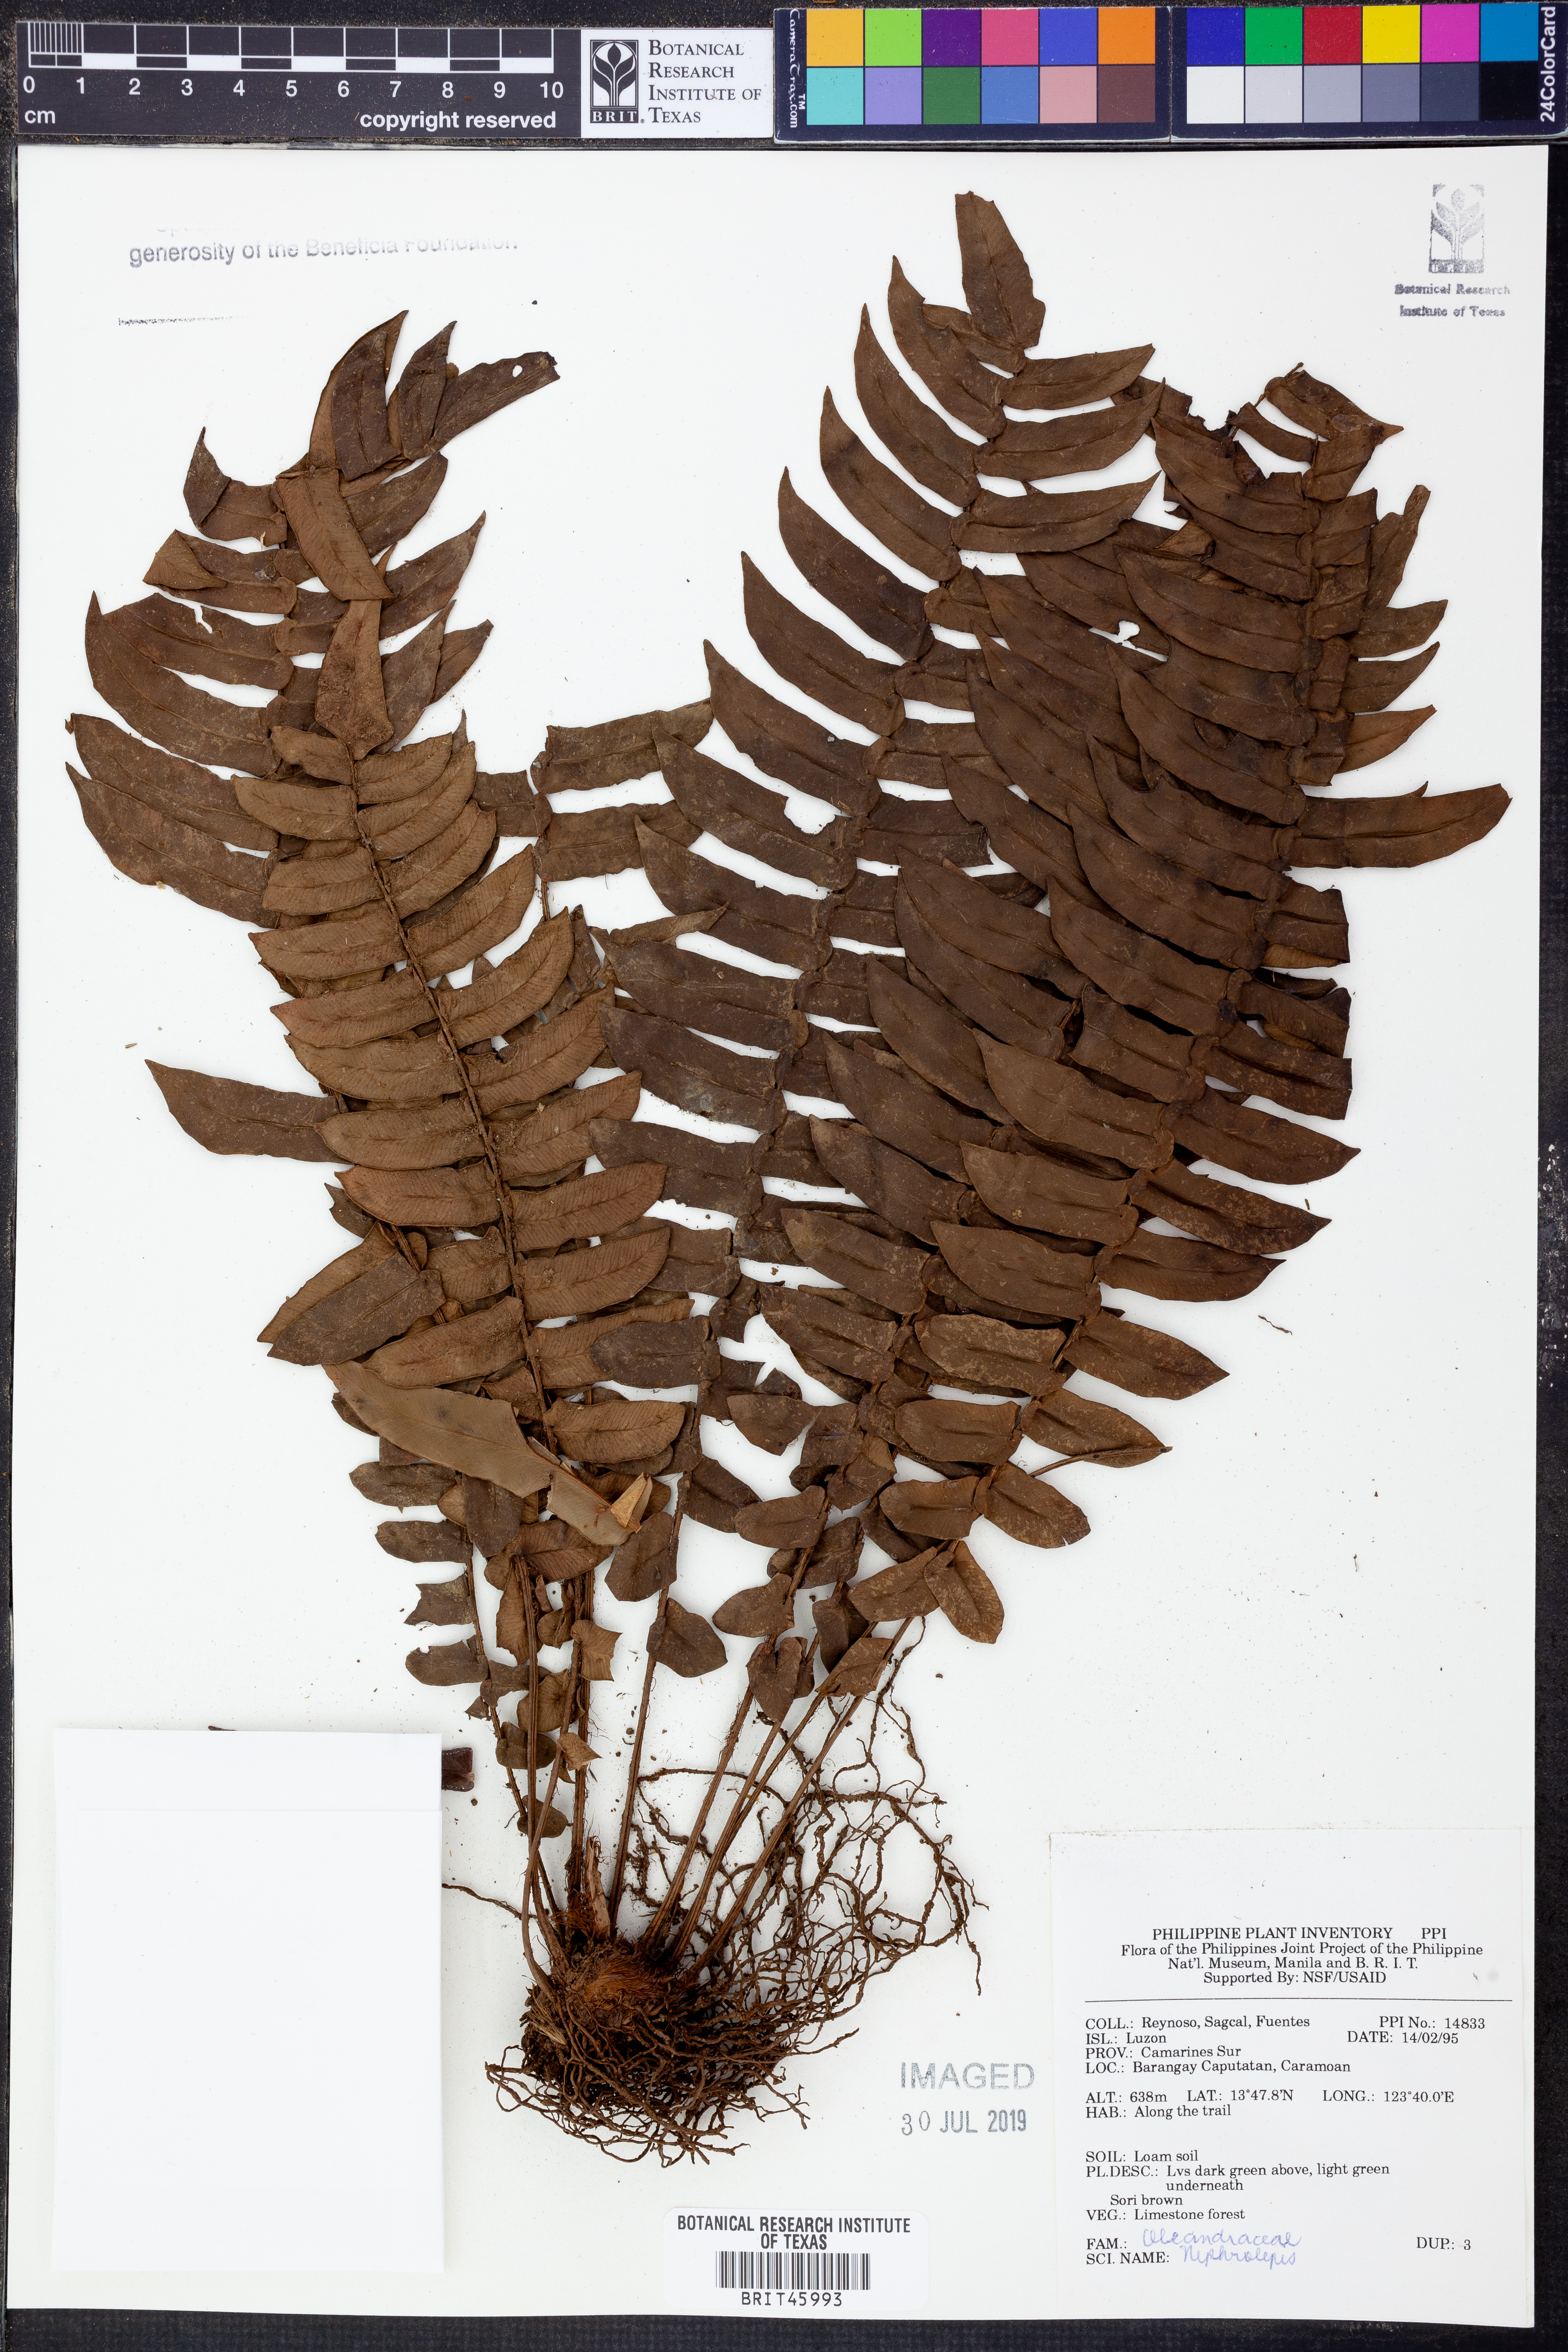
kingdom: Plantae
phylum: Tracheophyta
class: Polypodiopsida
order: Polypodiales
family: Nephrolepidaceae
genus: Nephrolepis
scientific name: Nephrolepis
